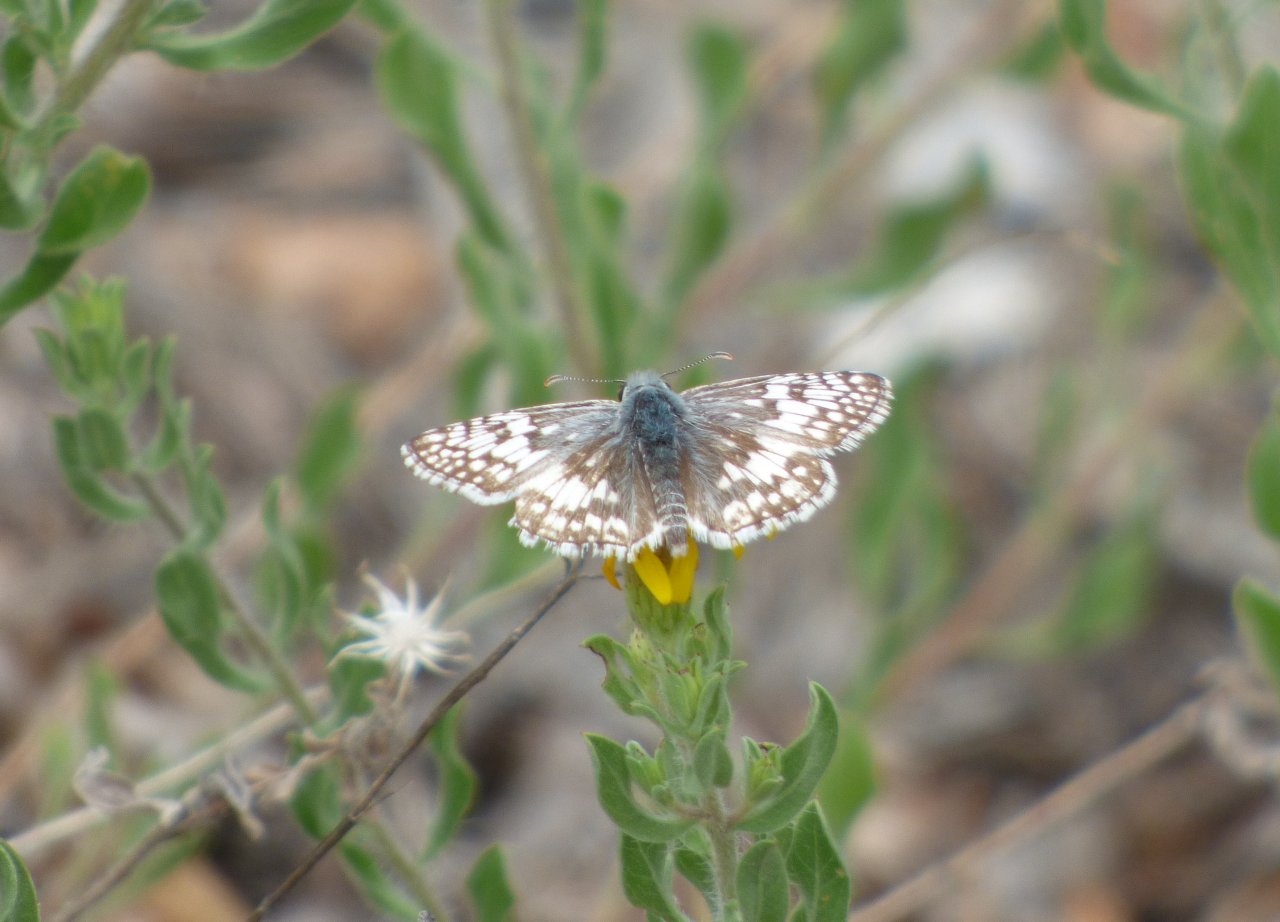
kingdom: Animalia
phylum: Arthropoda
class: Insecta
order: Lepidoptera
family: Hesperiidae
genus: Pyrgus
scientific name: Pyrgus communis
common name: Common Checkered-Skipper
